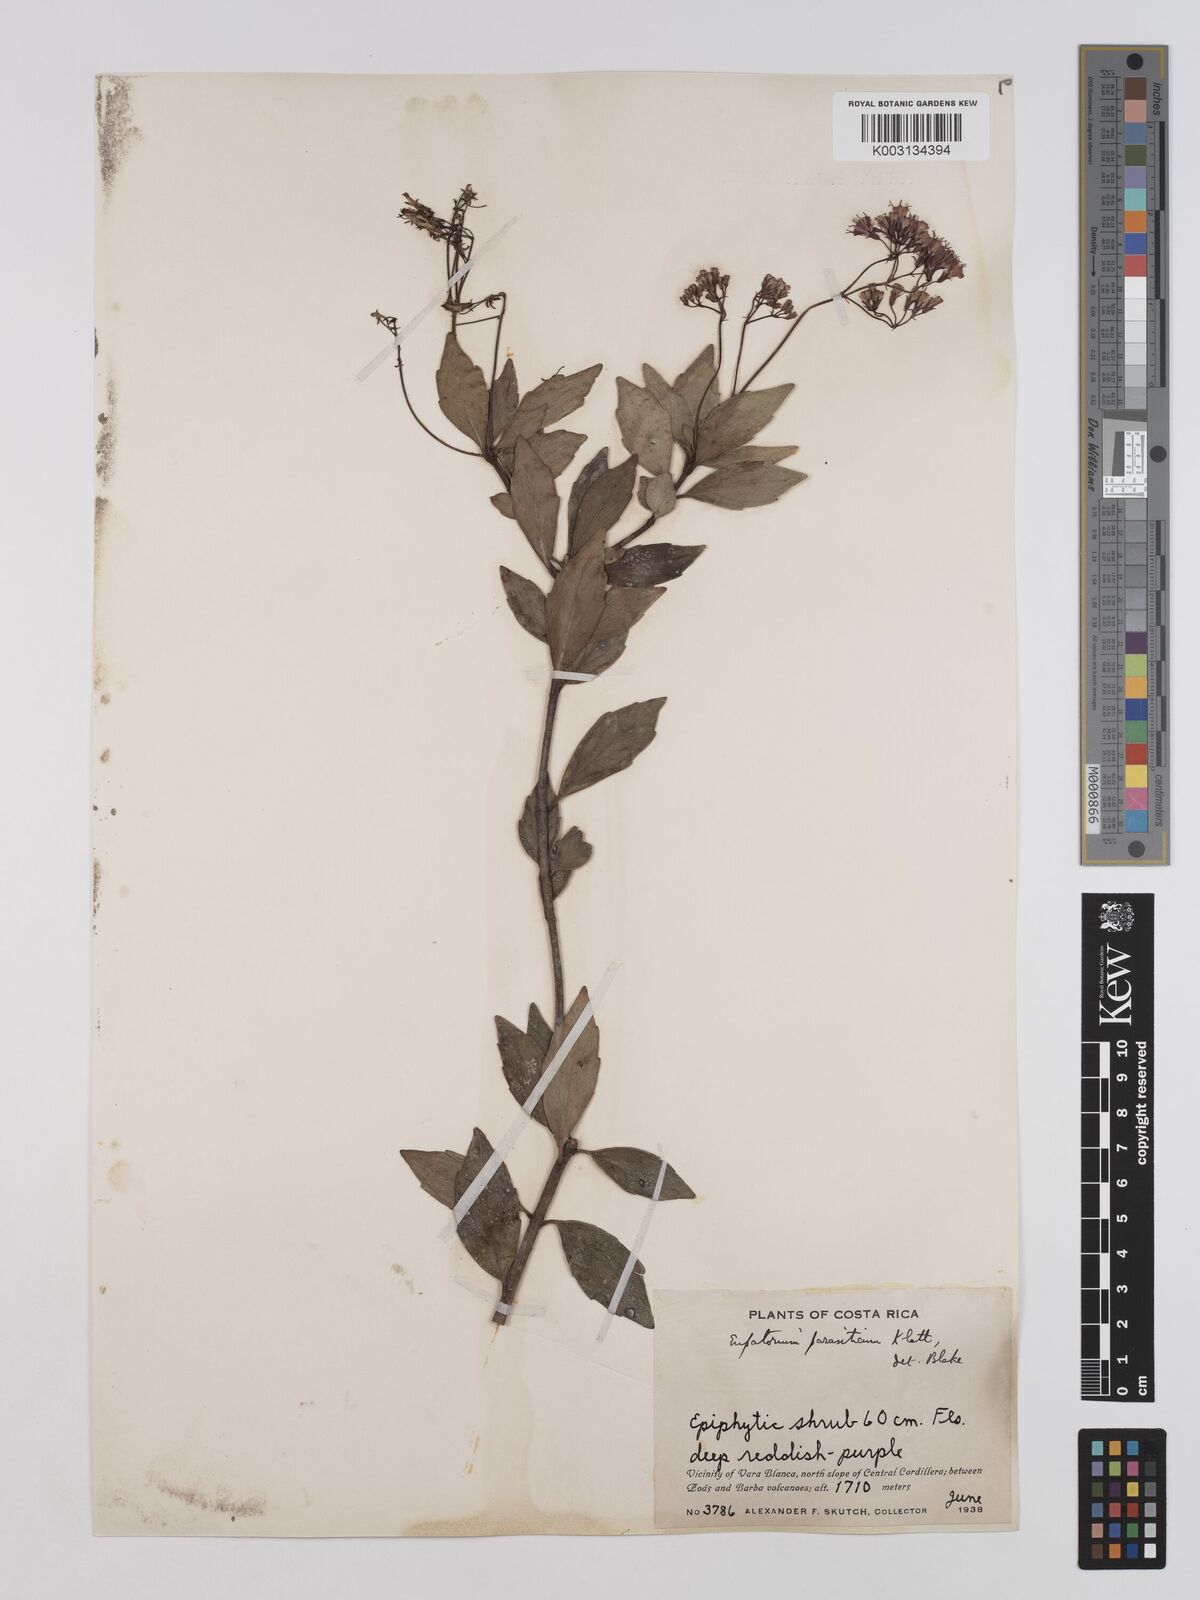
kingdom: Plantae
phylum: Tracheophyta
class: Magnoliopsida
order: Asterales
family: Asteraceae
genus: Neomirandea
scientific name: Neomirandea parasitica
